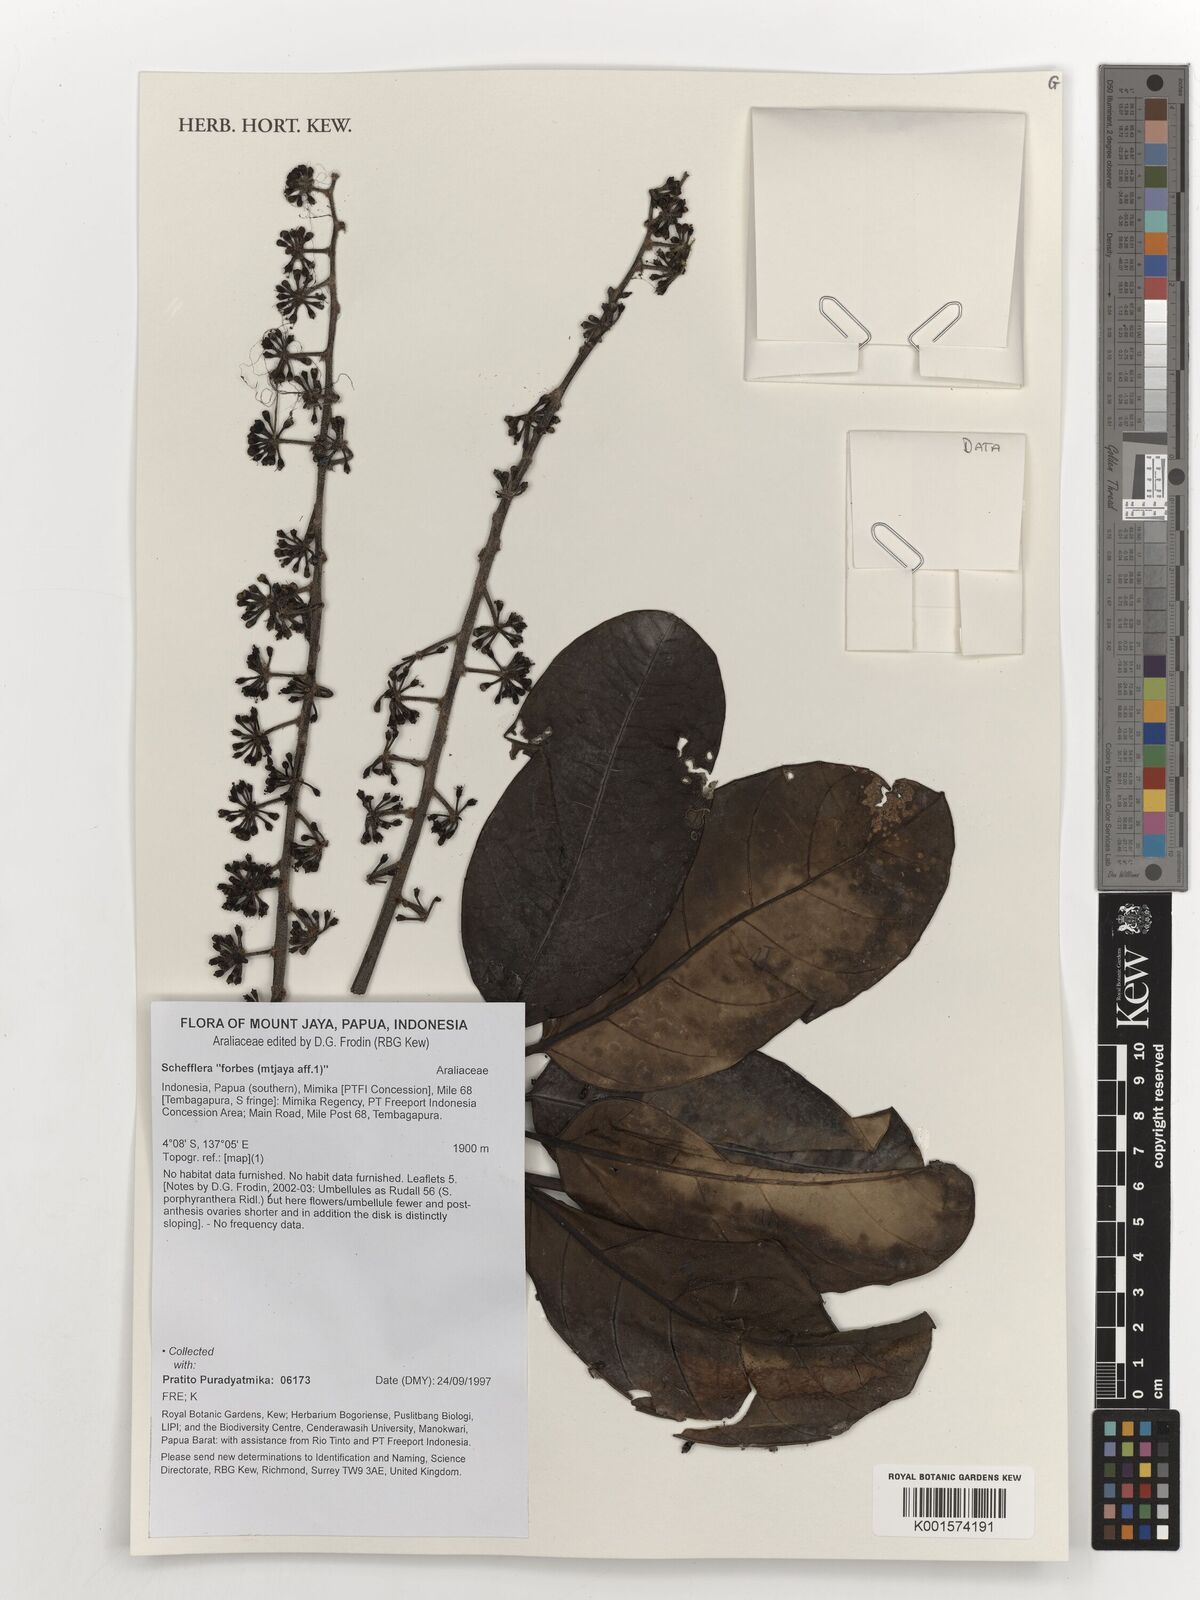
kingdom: Plantae
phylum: Tracheophyta
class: Magnoliopsida
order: Apiales
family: Araliaceae
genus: Schefflera
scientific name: Schefflera
